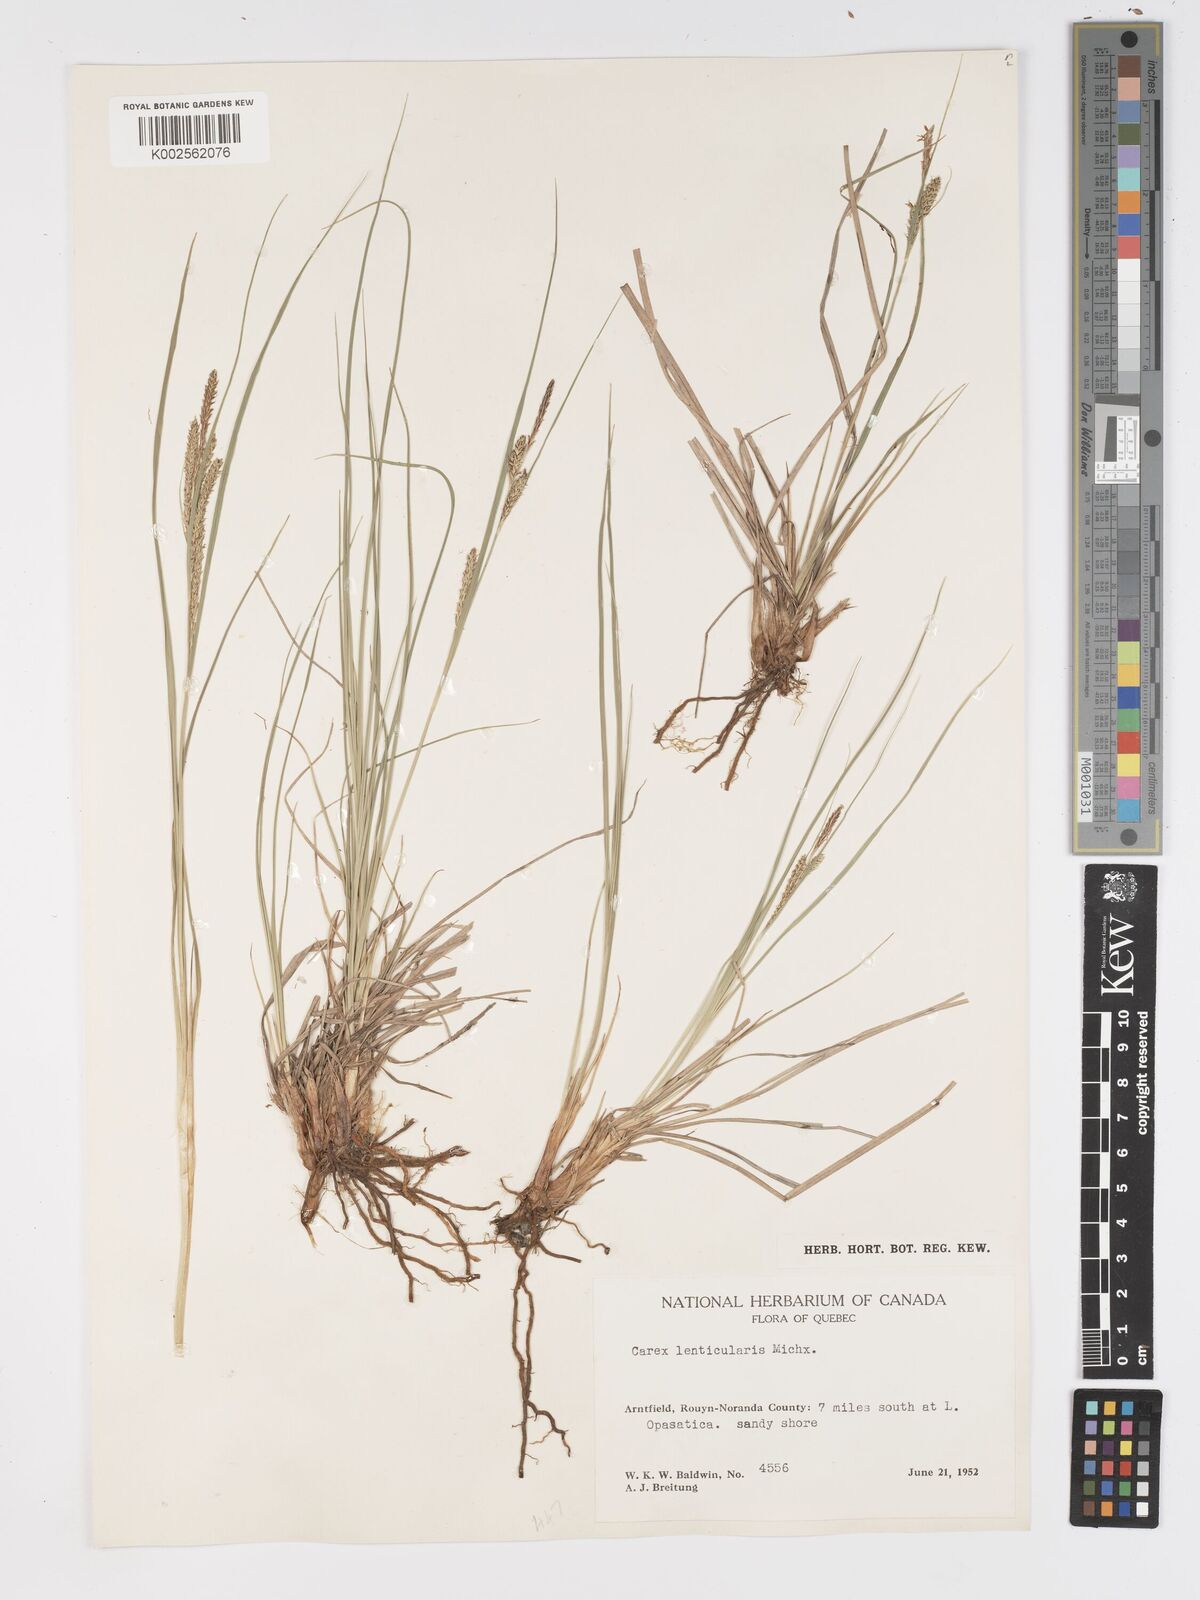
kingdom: Plantae
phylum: Tracheophyta
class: Liliopsida
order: Poales
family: Cyperaceae
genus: Carex
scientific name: Carex lenticularis
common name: Lakeshore sedge
